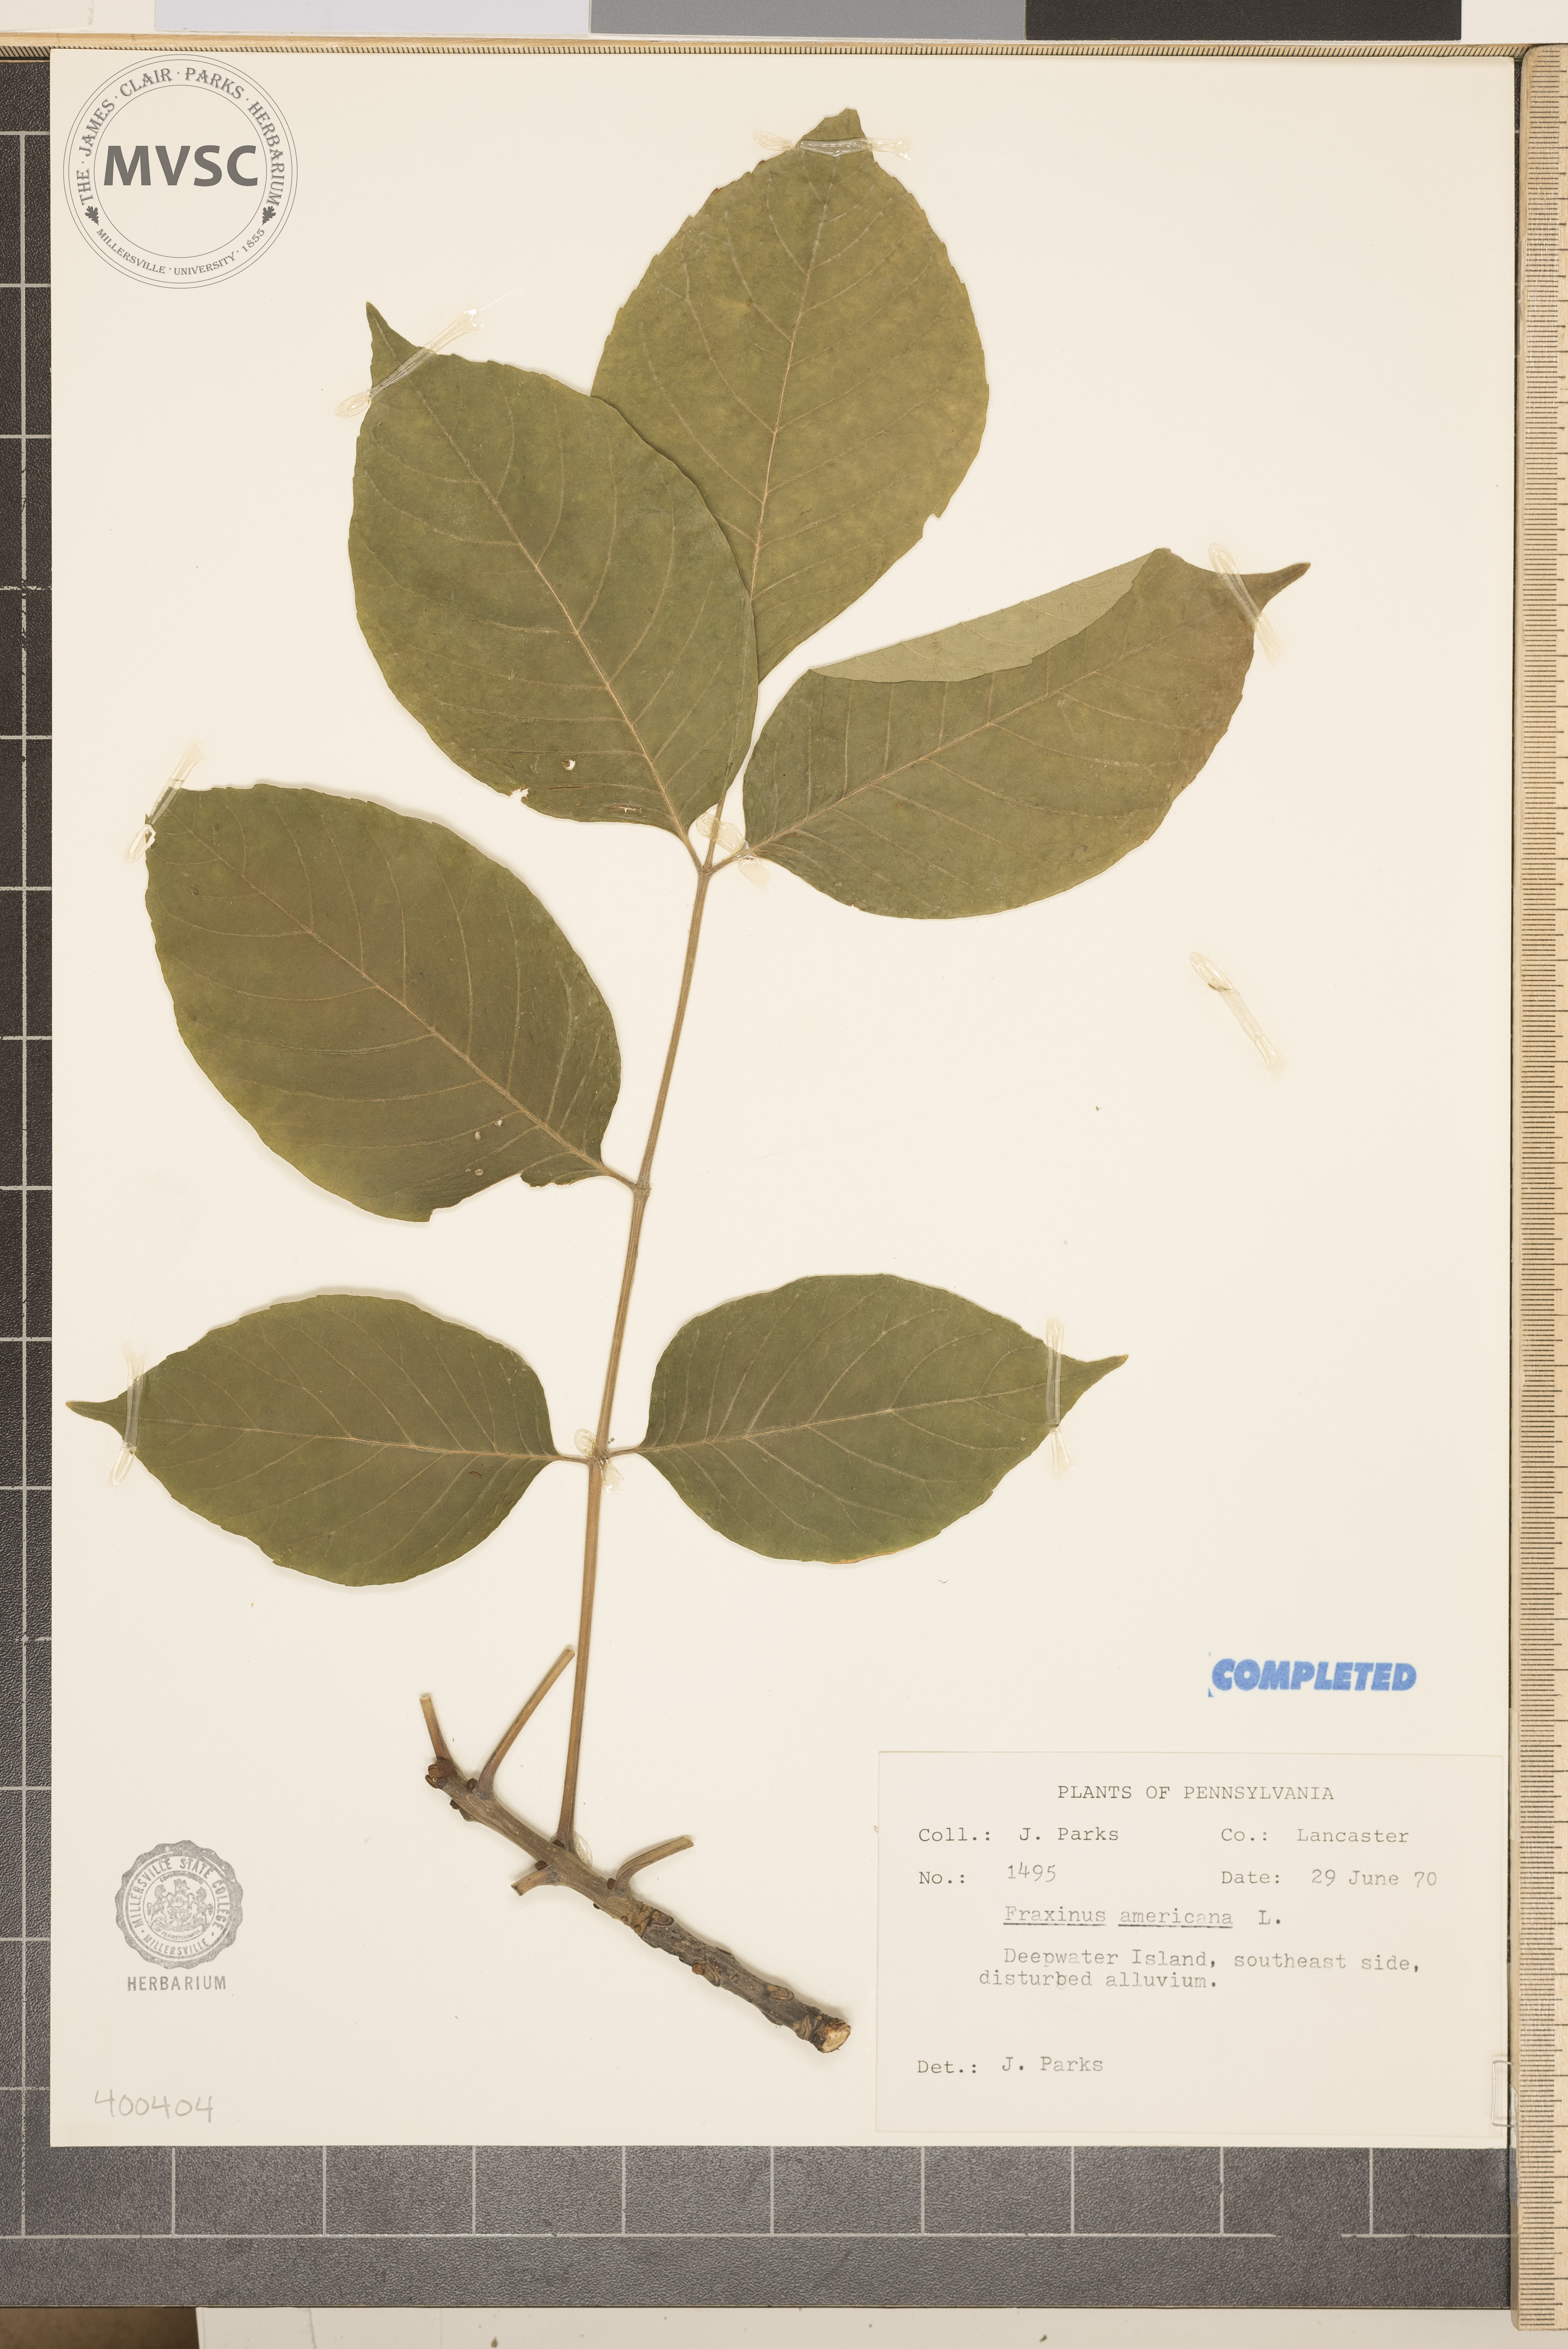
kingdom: Plantae
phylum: Tracheophyta
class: Magnoliopsida
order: Lamiales
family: Oleaceae
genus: Fraxinus
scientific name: Fraxinus americana
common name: ash
